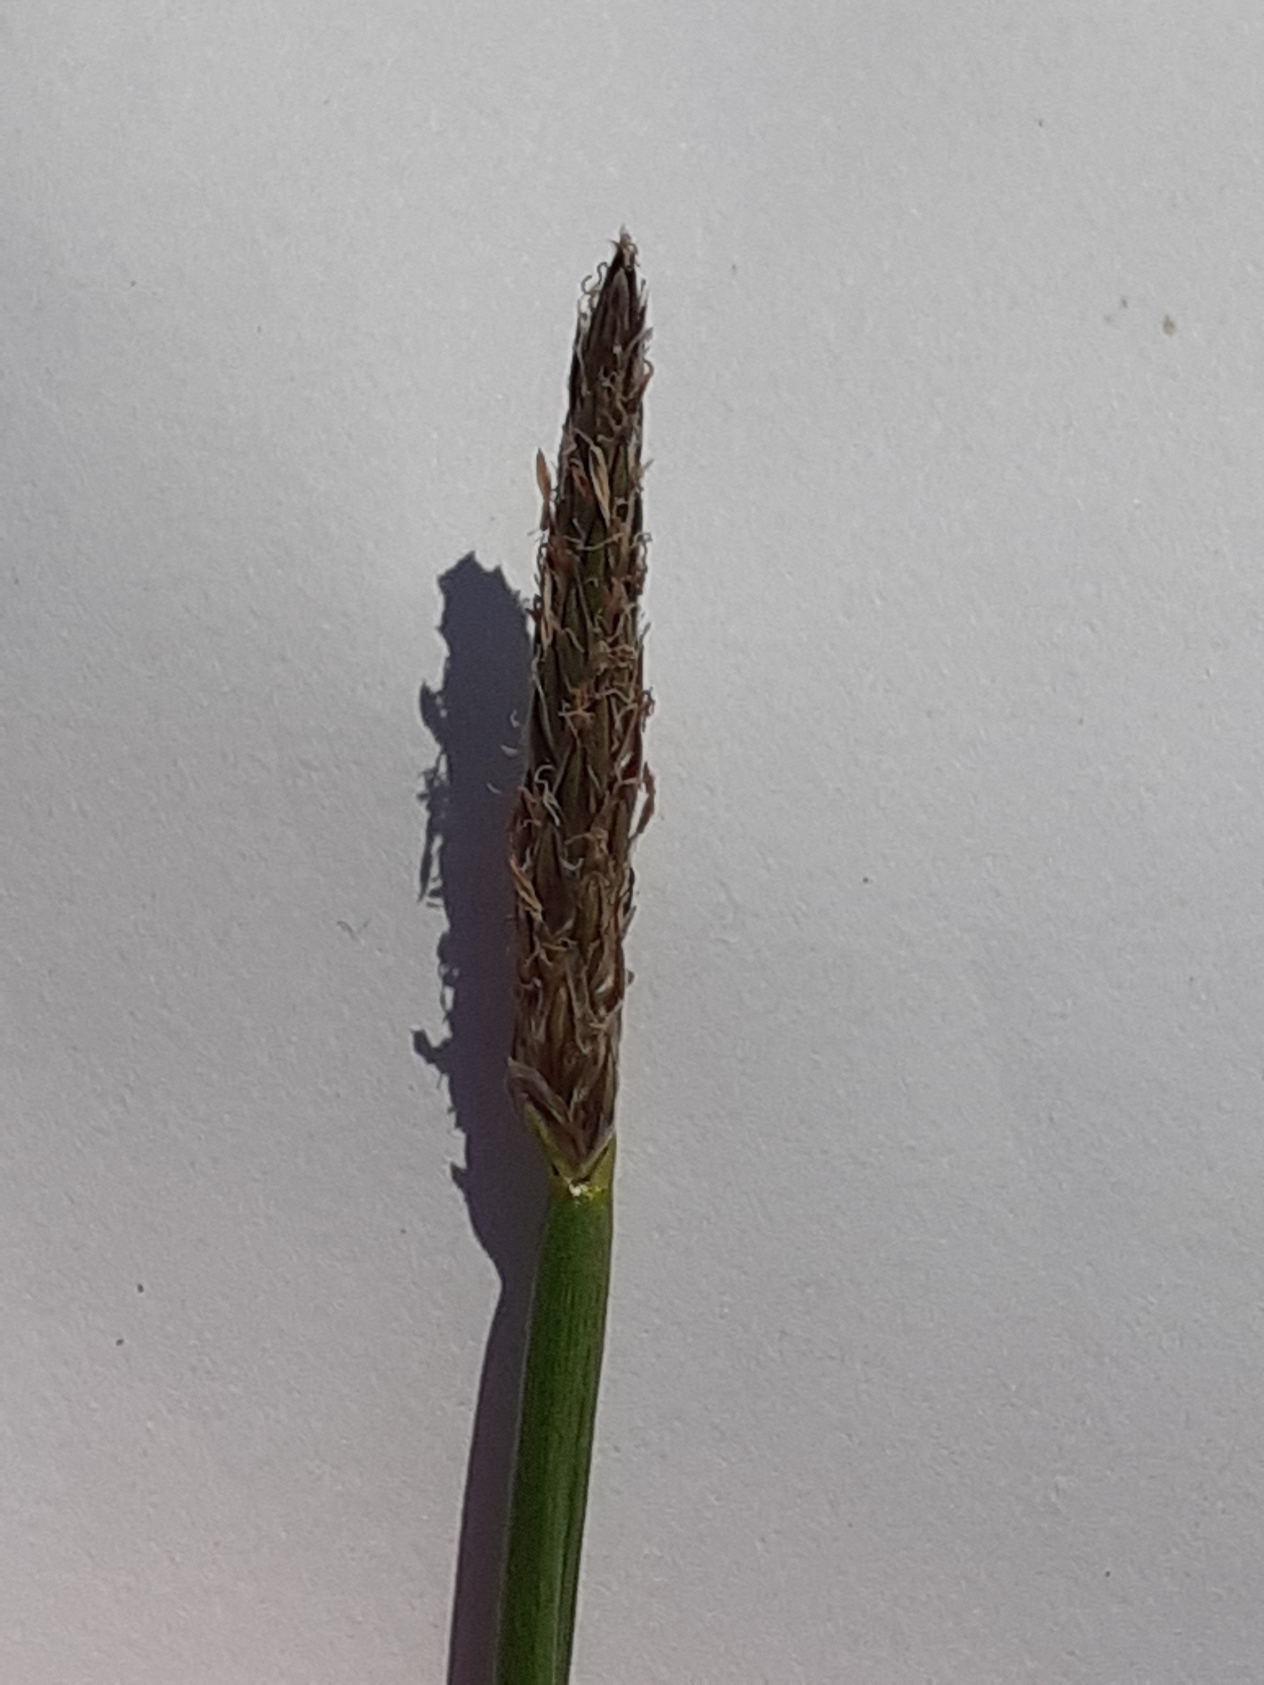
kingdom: Plantae
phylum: Tracheophyta
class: Liliopsida
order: Poales
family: Cyperaceae
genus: Eleocharis
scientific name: Eleocharis palustris
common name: Almindelig sumpstrå
